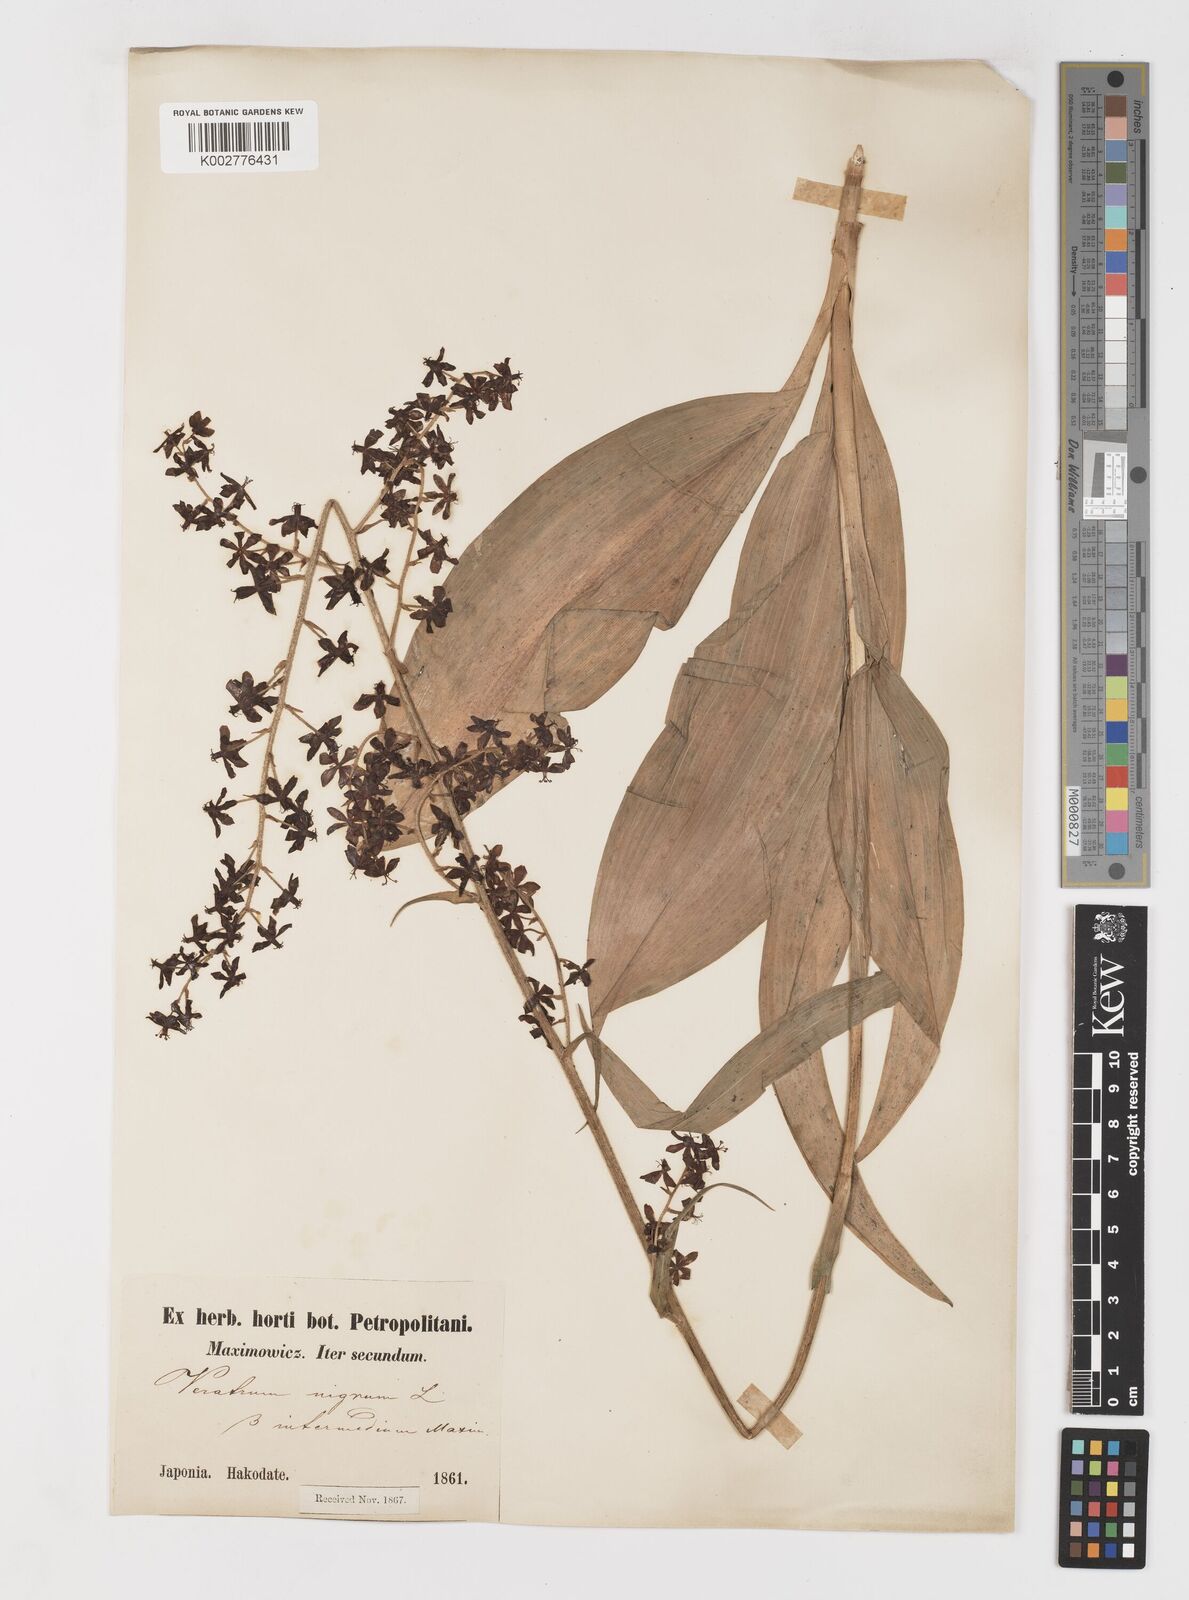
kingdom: Plantae
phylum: Tracheophyta
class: Liliopsida
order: Liliales
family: Melanthiaceae
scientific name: Melanthiaceae
